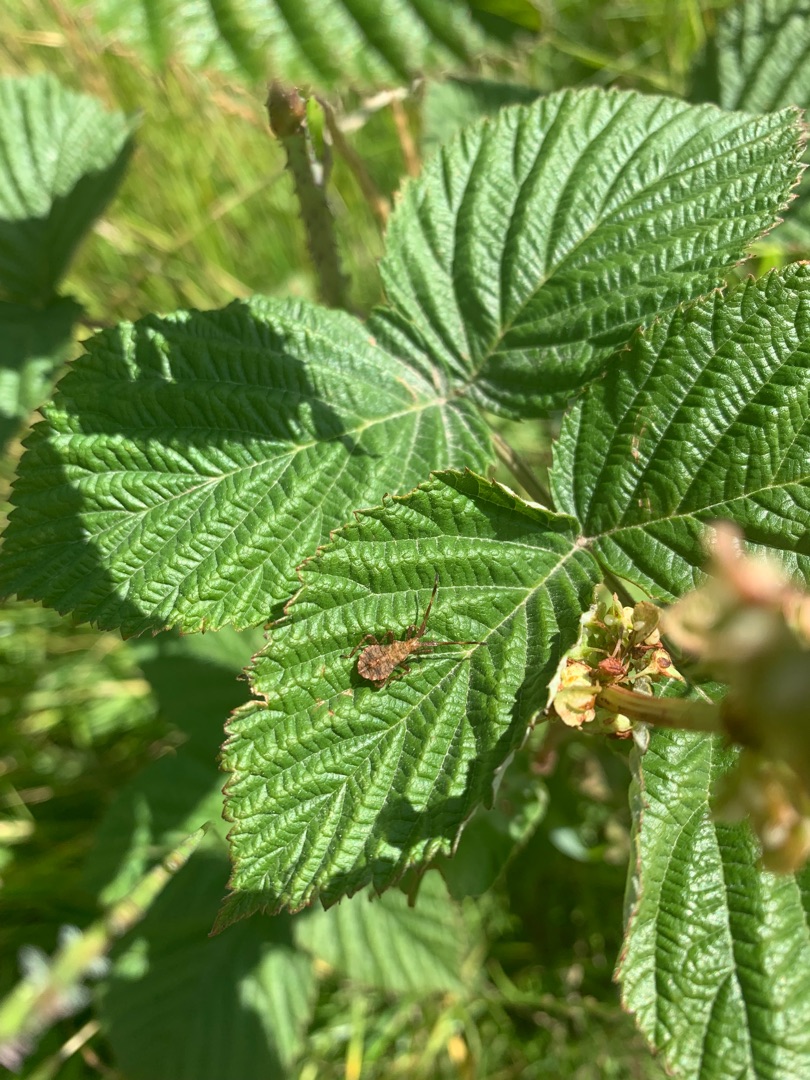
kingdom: Animalia
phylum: Arthropoda
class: Insecta
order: Hemiptera
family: Coreidae
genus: Coreus
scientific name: Coreus marginatus
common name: Skræppetæge
